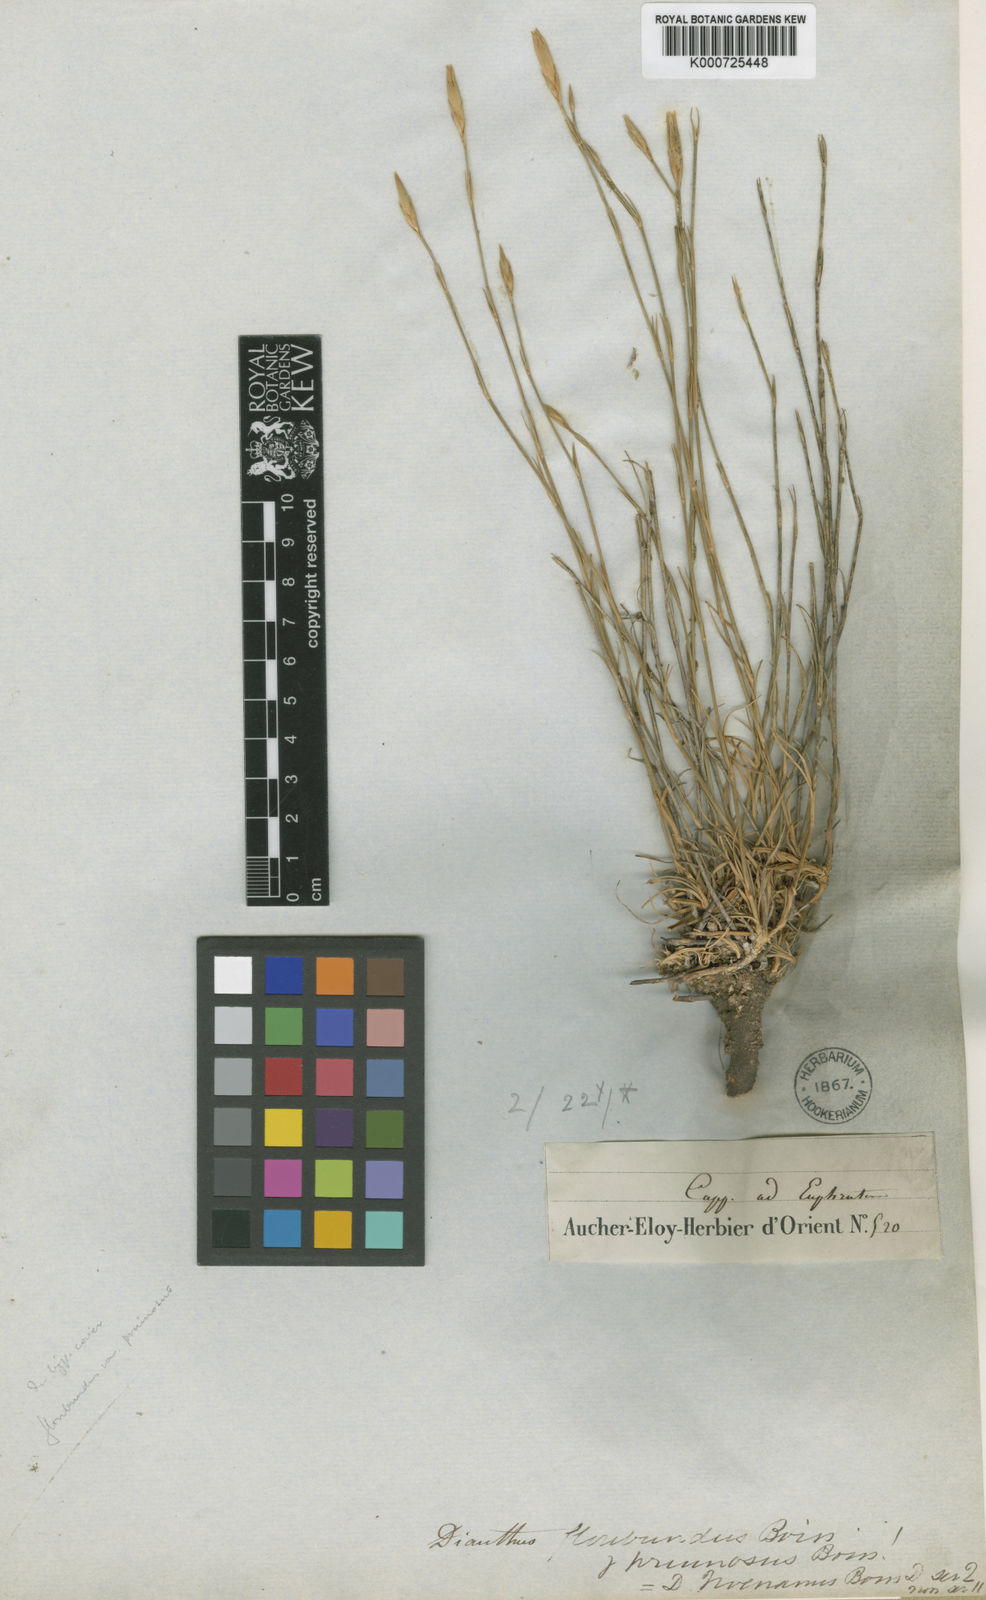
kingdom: Plantae
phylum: Tracheophyta
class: Magnoliopsida
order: Caryophyllales
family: Caryophyllaceae
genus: Dianthus
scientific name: Dianthus floribundus
